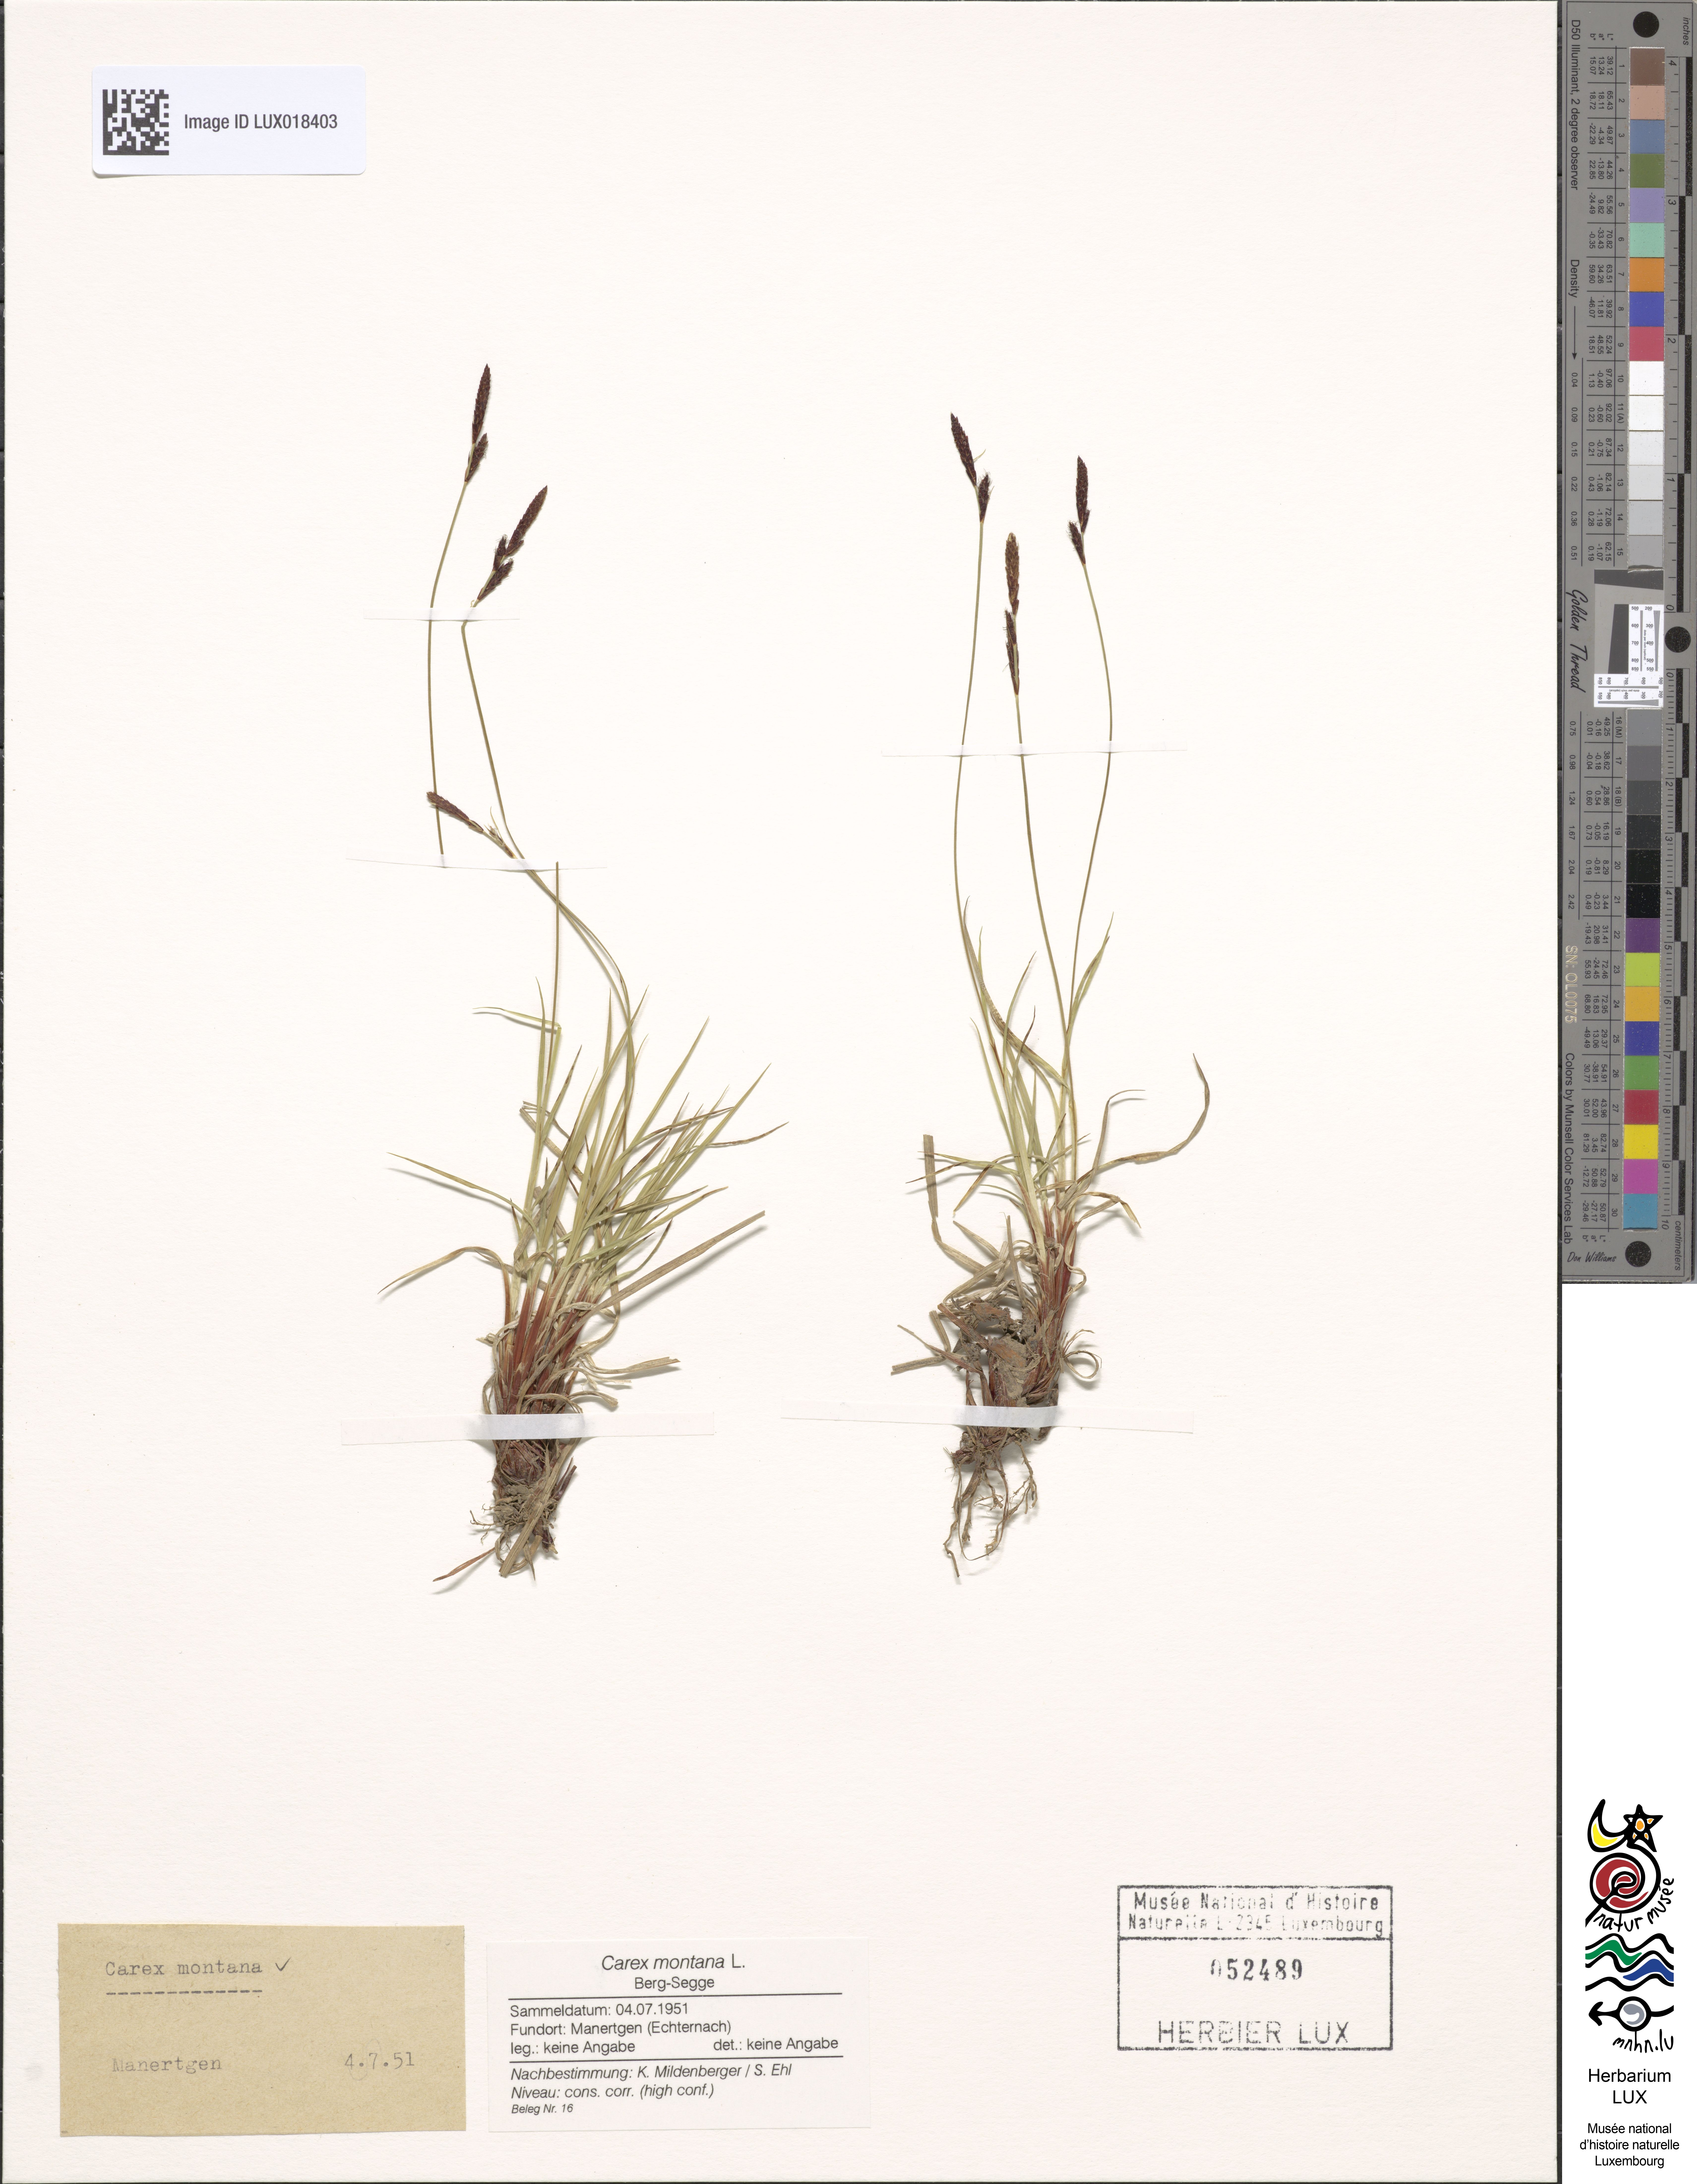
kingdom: Plantae
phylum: Tracheophyta
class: Liliopsida
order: Poales
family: Cyperaceae
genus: Carex
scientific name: Carex montana
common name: Soft-leaved sedge
